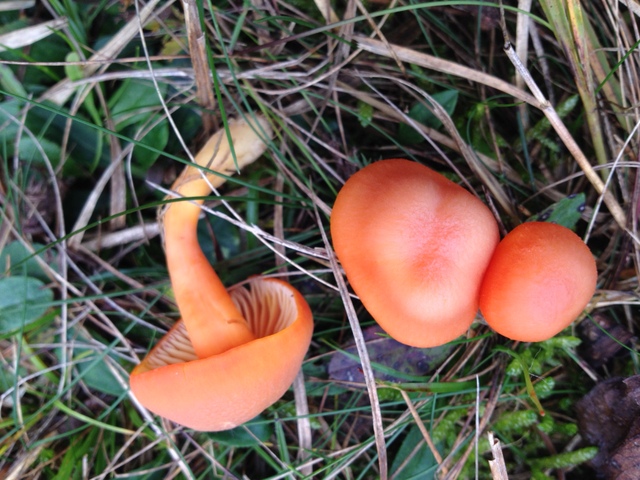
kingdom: Fungi
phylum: Basidiomycota
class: Agaricomycetes
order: Agaricales
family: Hygrophoraceae
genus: Hygrocybe
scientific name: Hygrocybe reidii
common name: honning-vokshat
